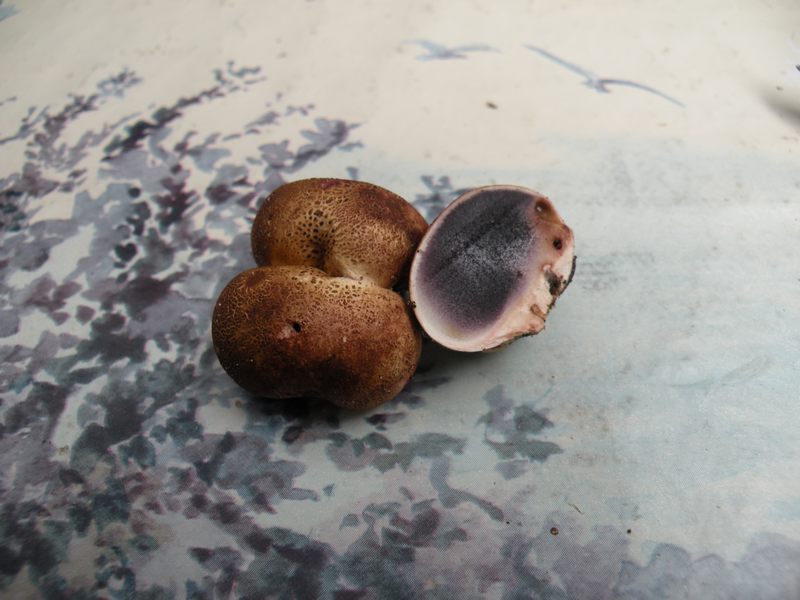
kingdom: Fungi
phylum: Basidiomycota
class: Agaricomycetes
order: Boletales
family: Sclerodermataceae
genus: Scleroderma
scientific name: Scleroderma areolatum
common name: plettet bruskbold
